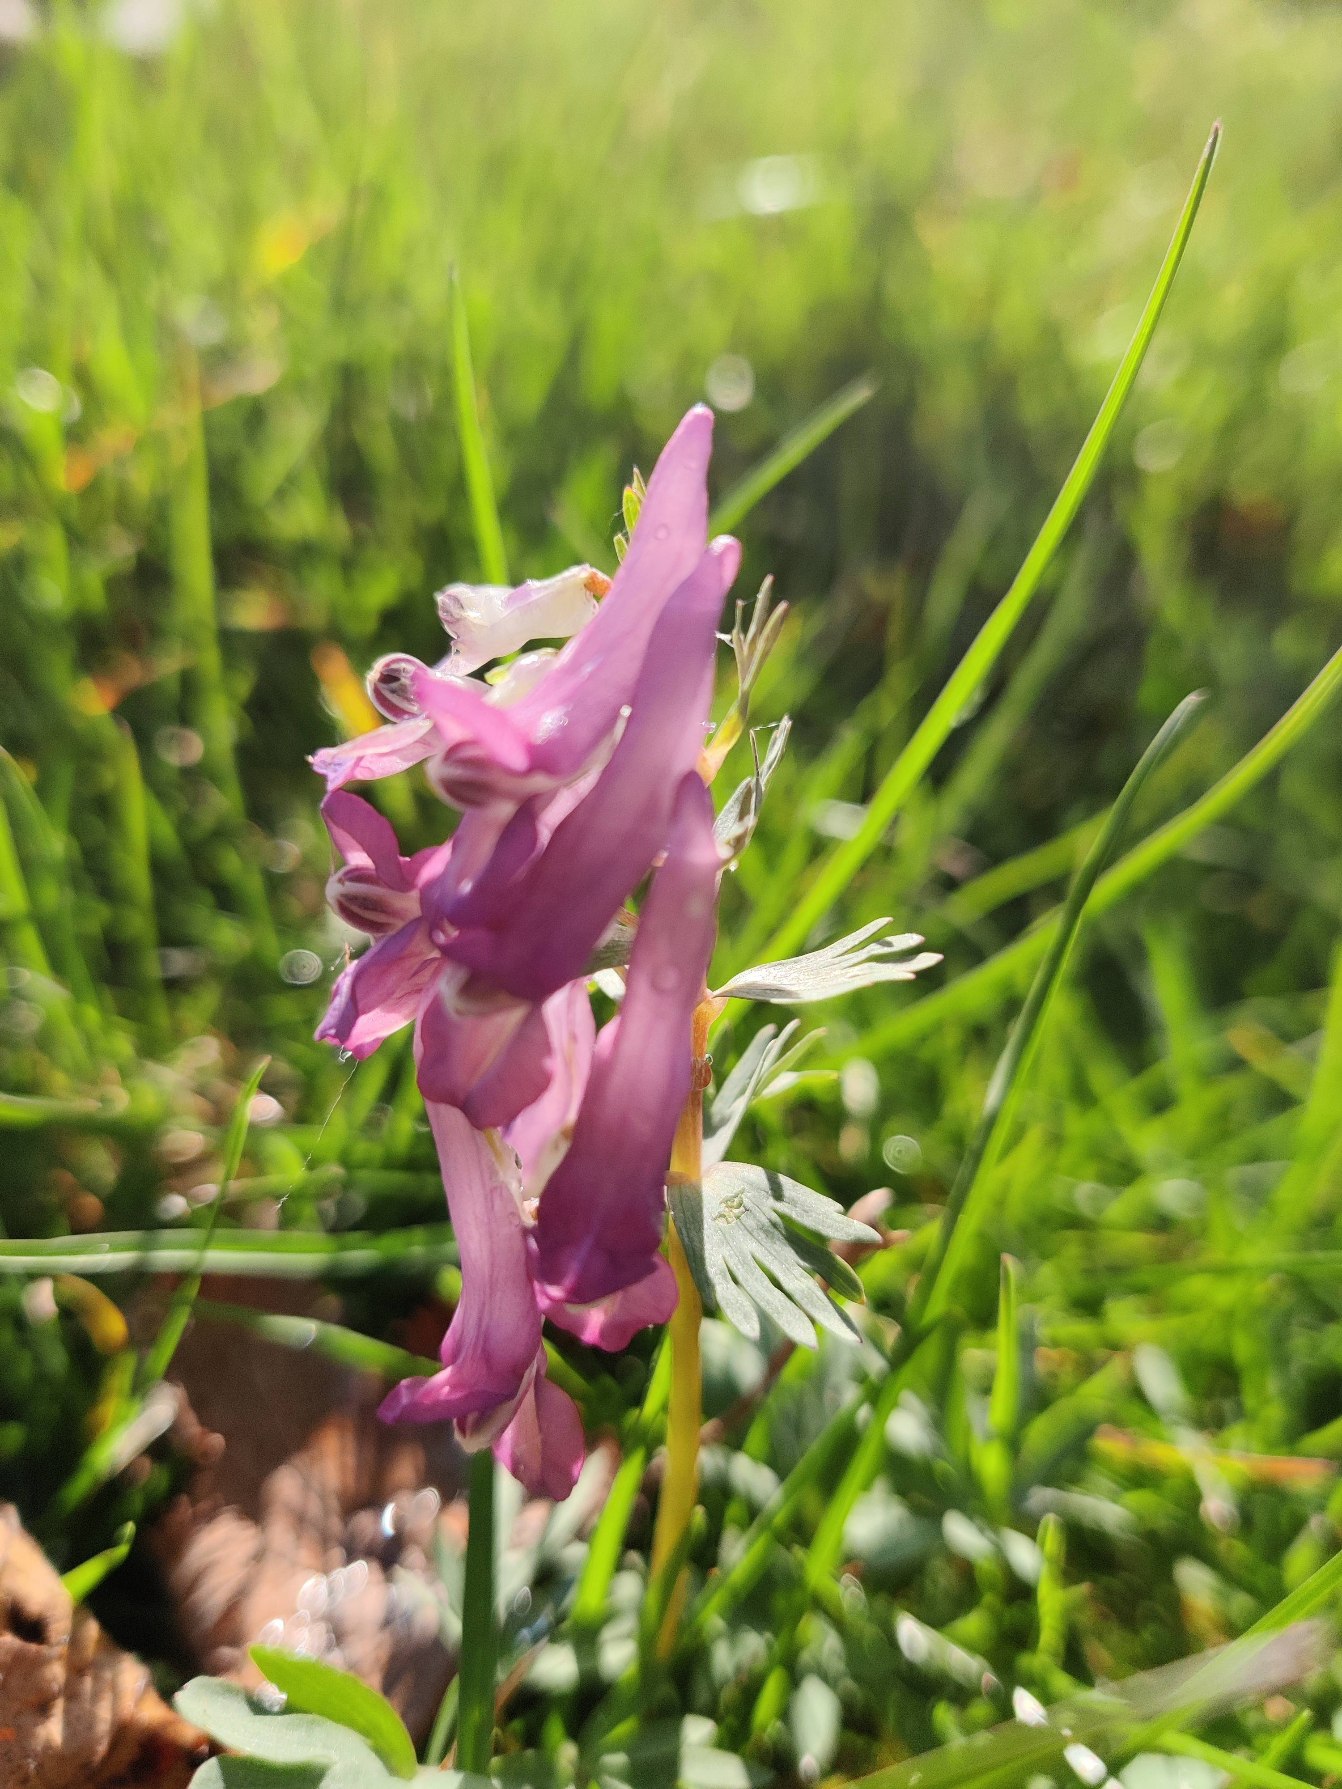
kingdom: Plantae
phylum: Tracheophyta
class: Magnoliopsida
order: Ranunculales
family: Papaveraceae
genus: Corydalis
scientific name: Corydalis solida
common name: Langstilket lærkespore
